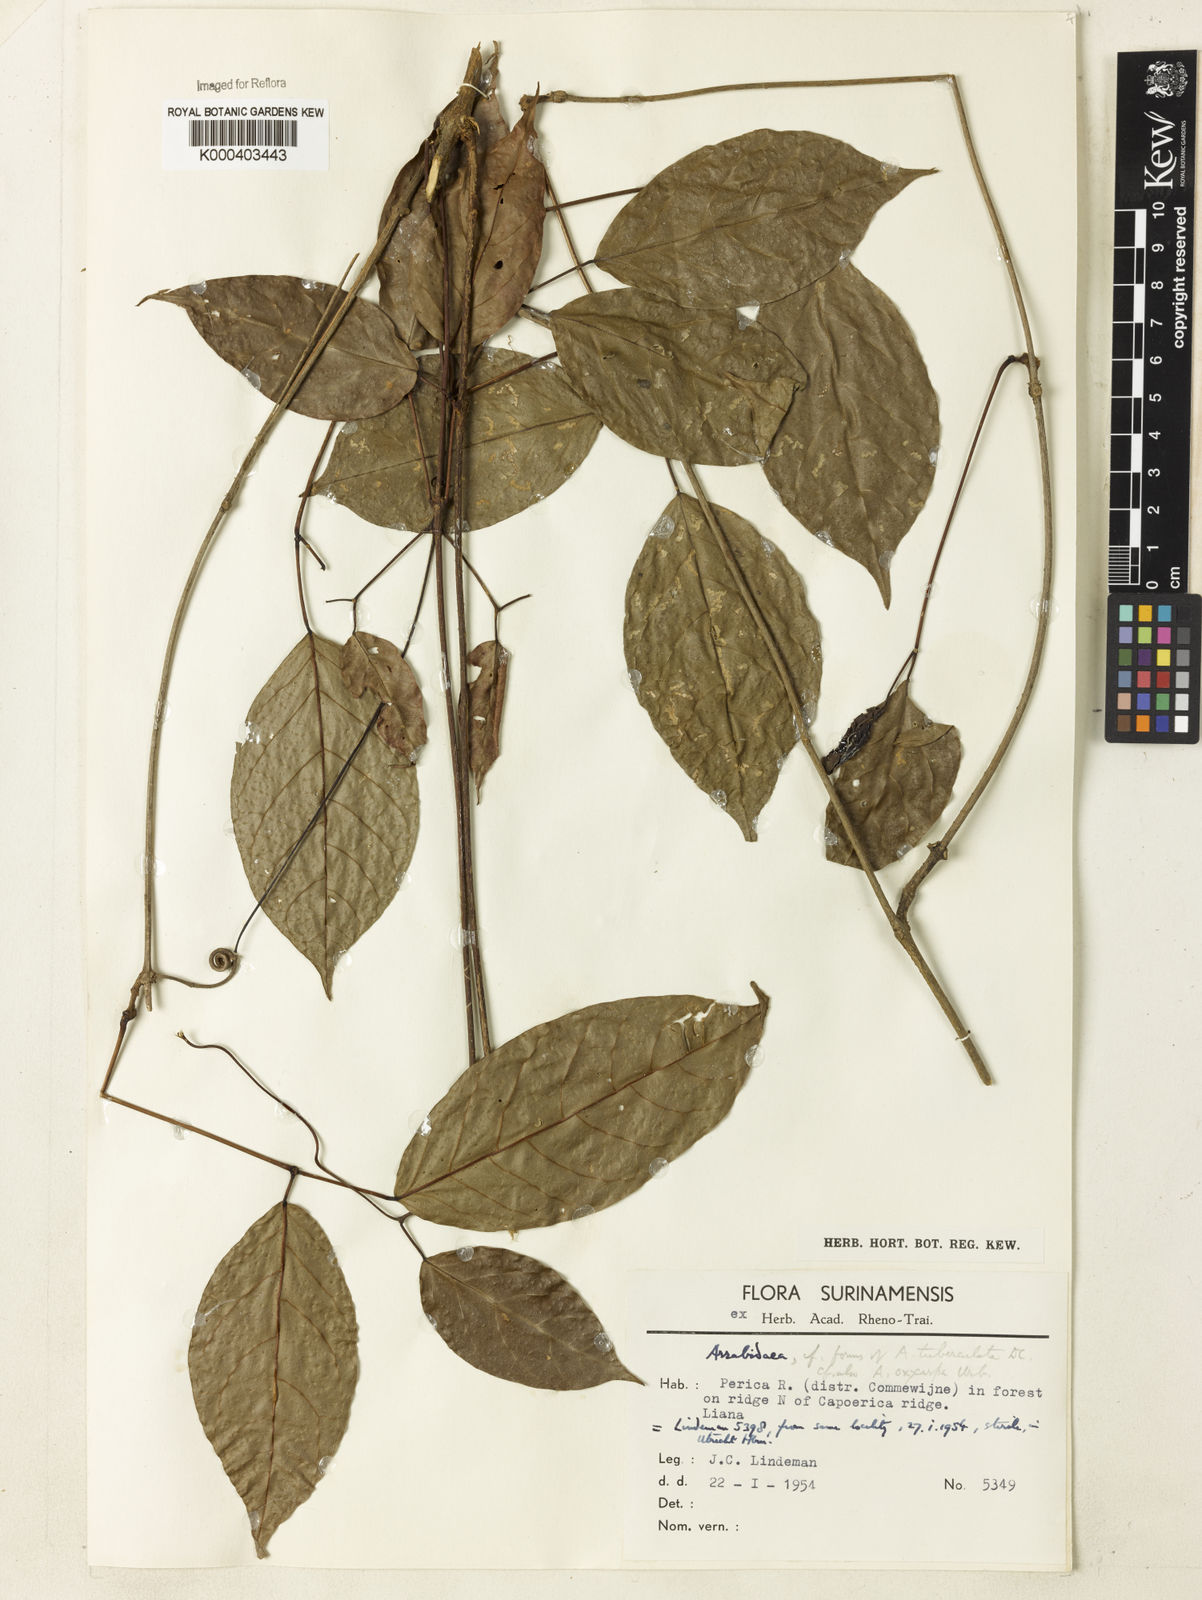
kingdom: Plantae
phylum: Tracheophyta
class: Magnoliopsida
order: Rosales
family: Rhamnaceae
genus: Arrabidaea
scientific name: Arrabidaea
